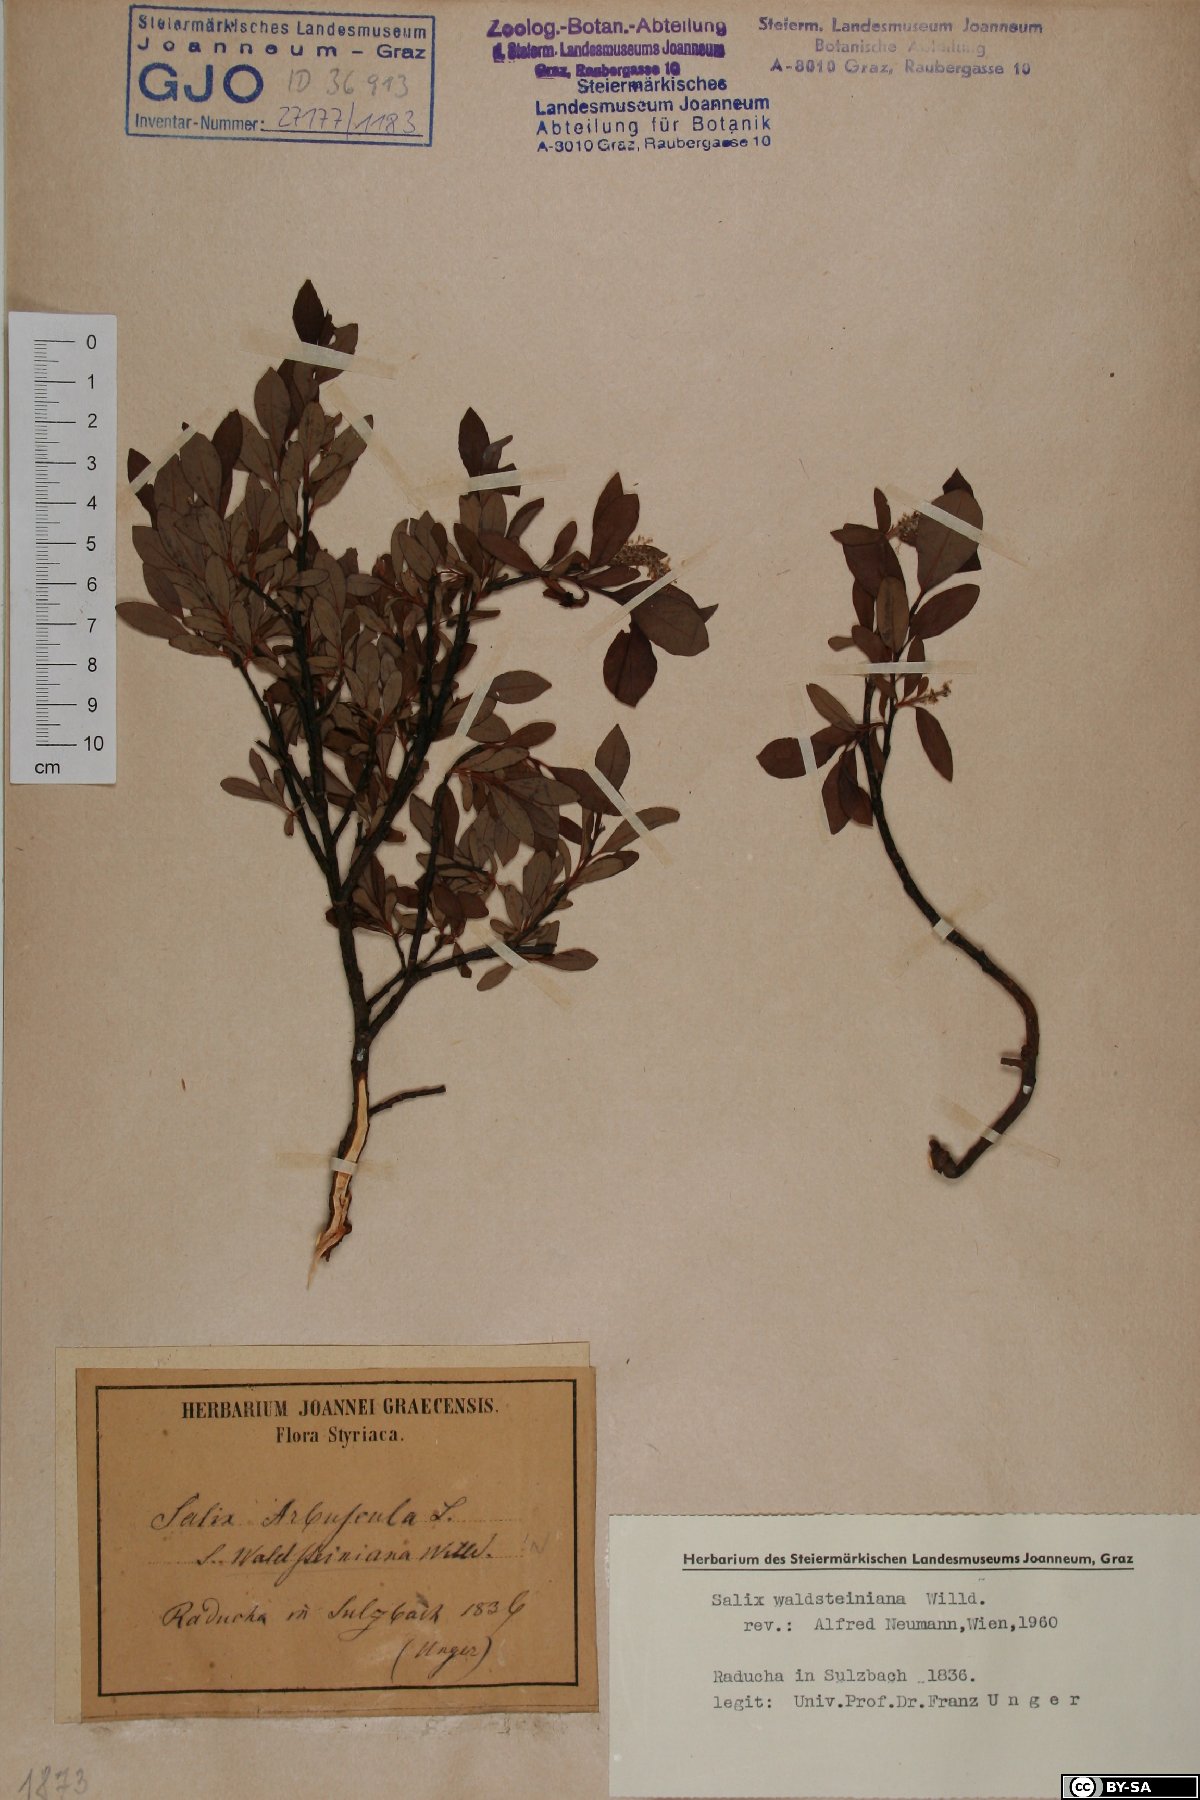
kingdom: Plantae
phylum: Tracheophyta
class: Magnoliopsida
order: Malpighiales
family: Salicaceae
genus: Salix
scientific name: Salix waldsteiniana
